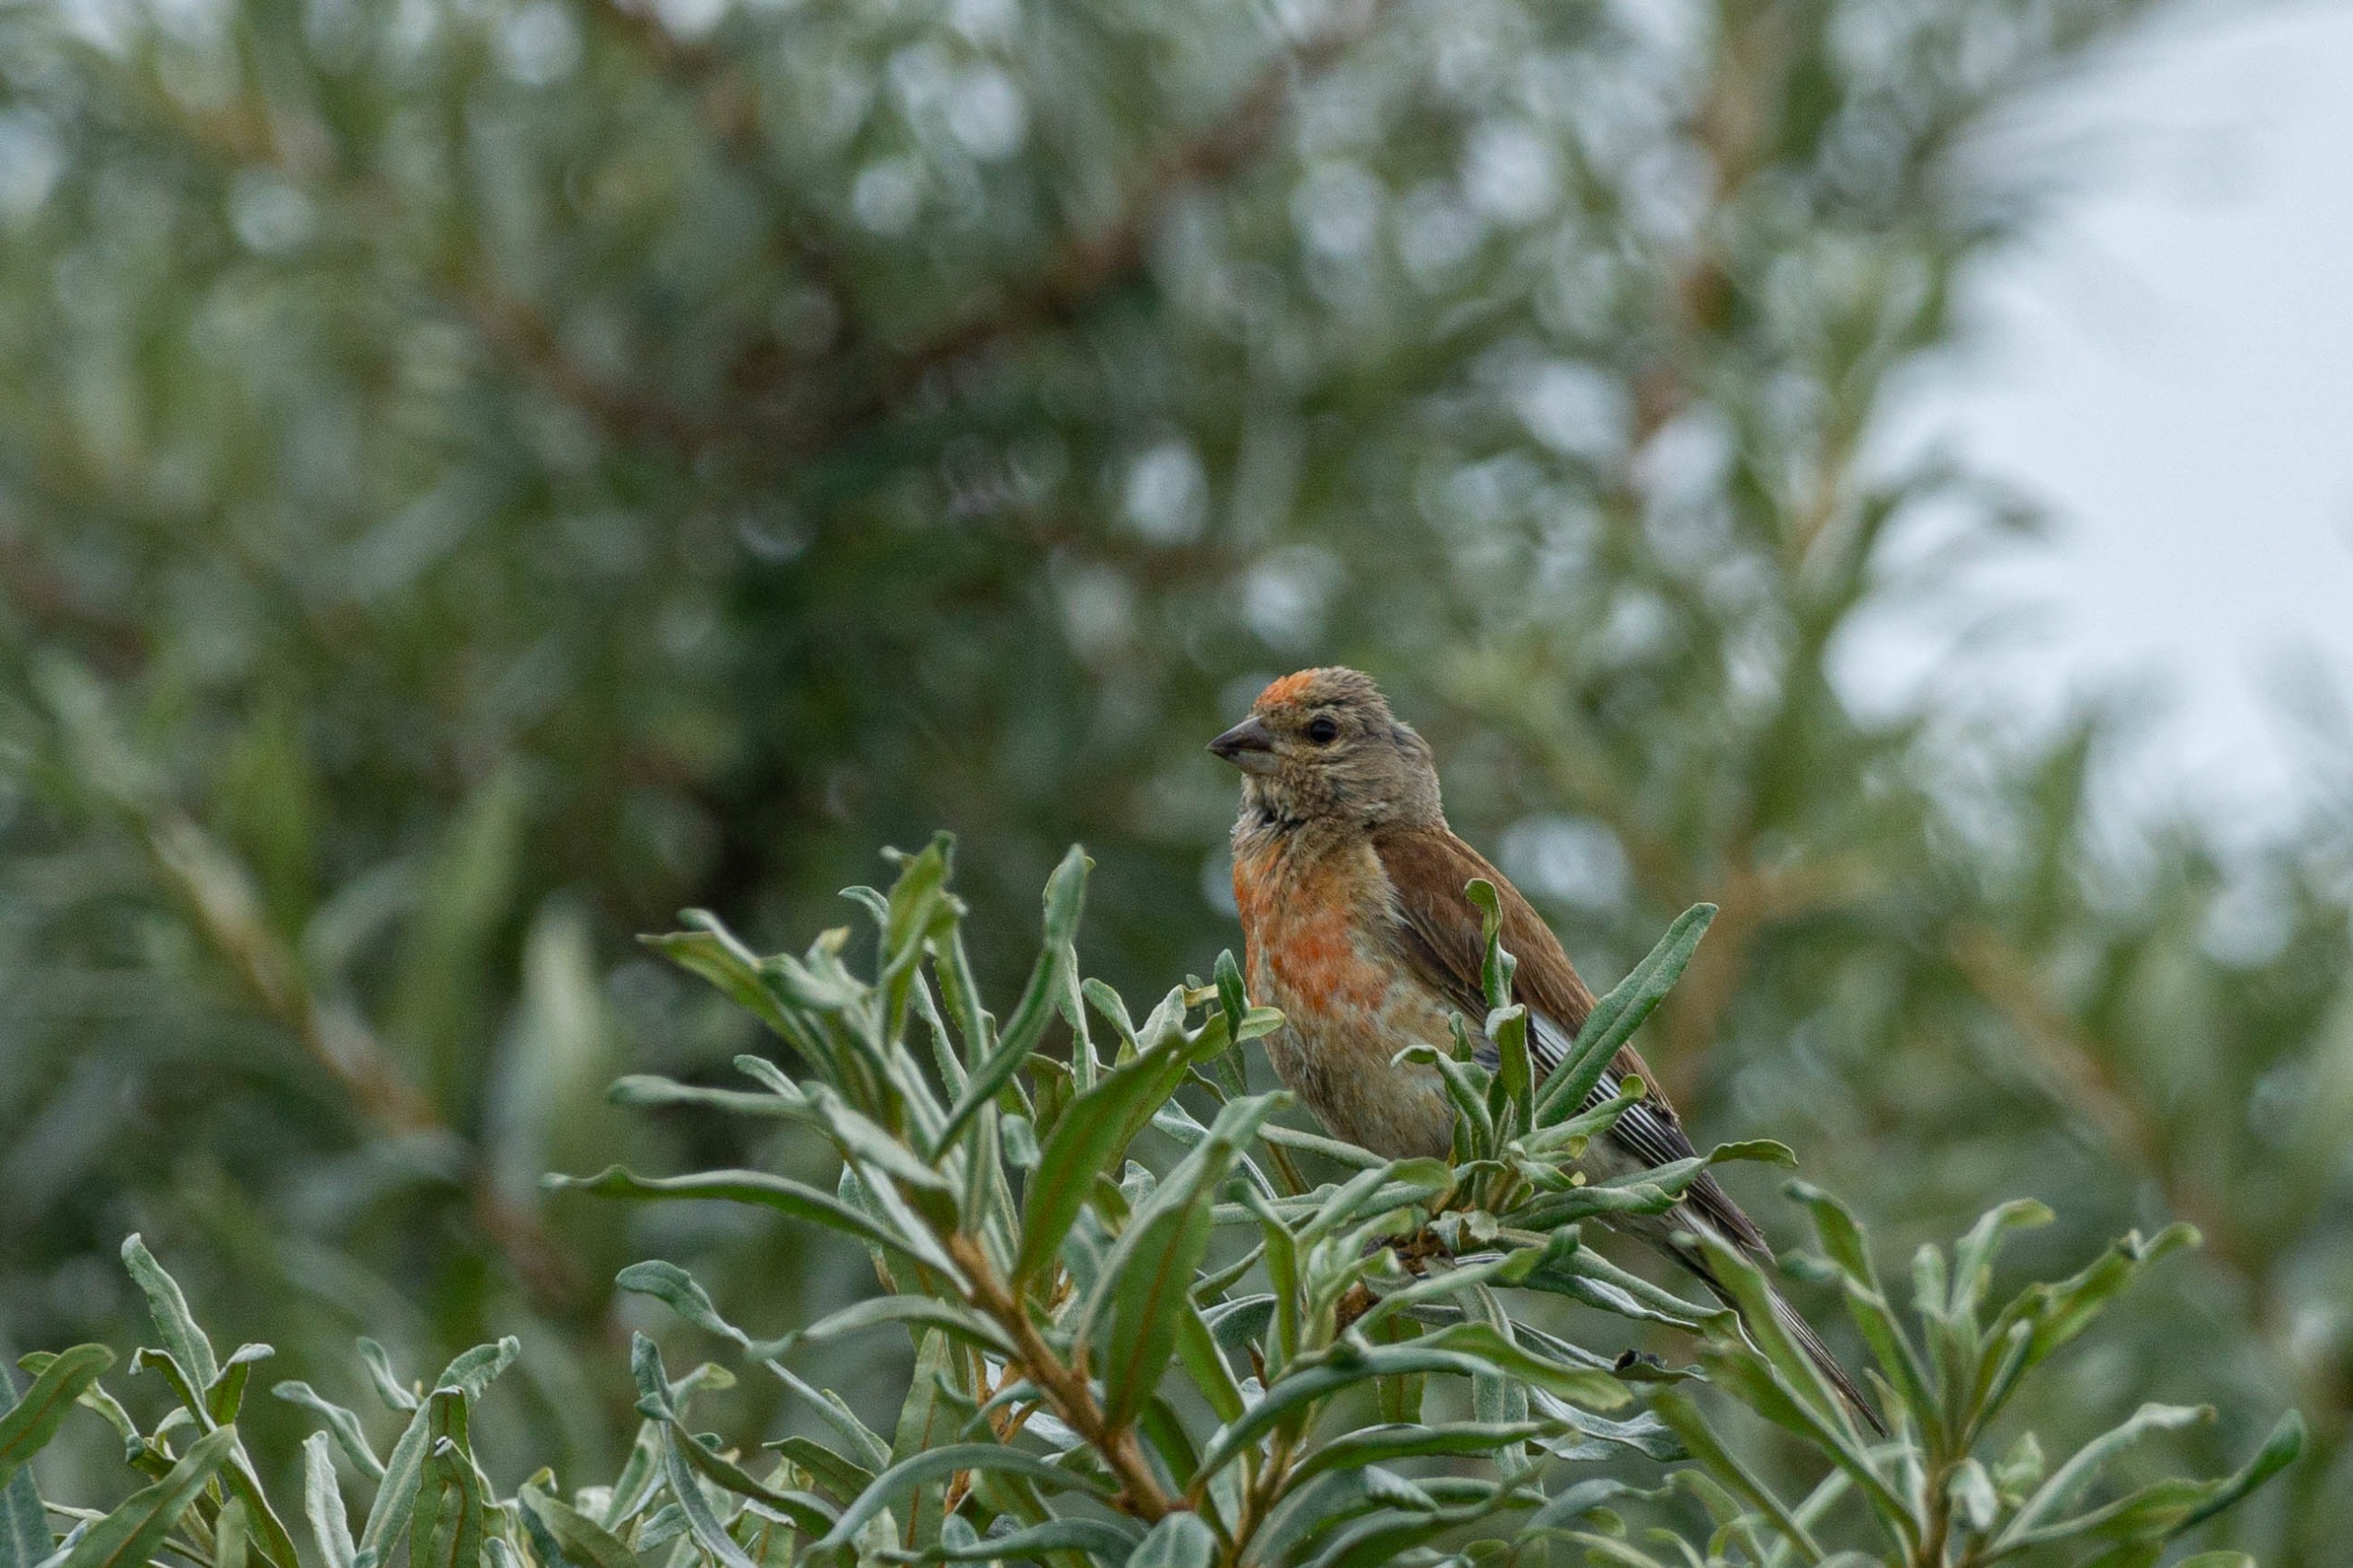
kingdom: Animalia
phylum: Chordata
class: Aves
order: Passeriformes
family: Fringillidae
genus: Linaria
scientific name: Linaria cannabina
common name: Tornirisk
